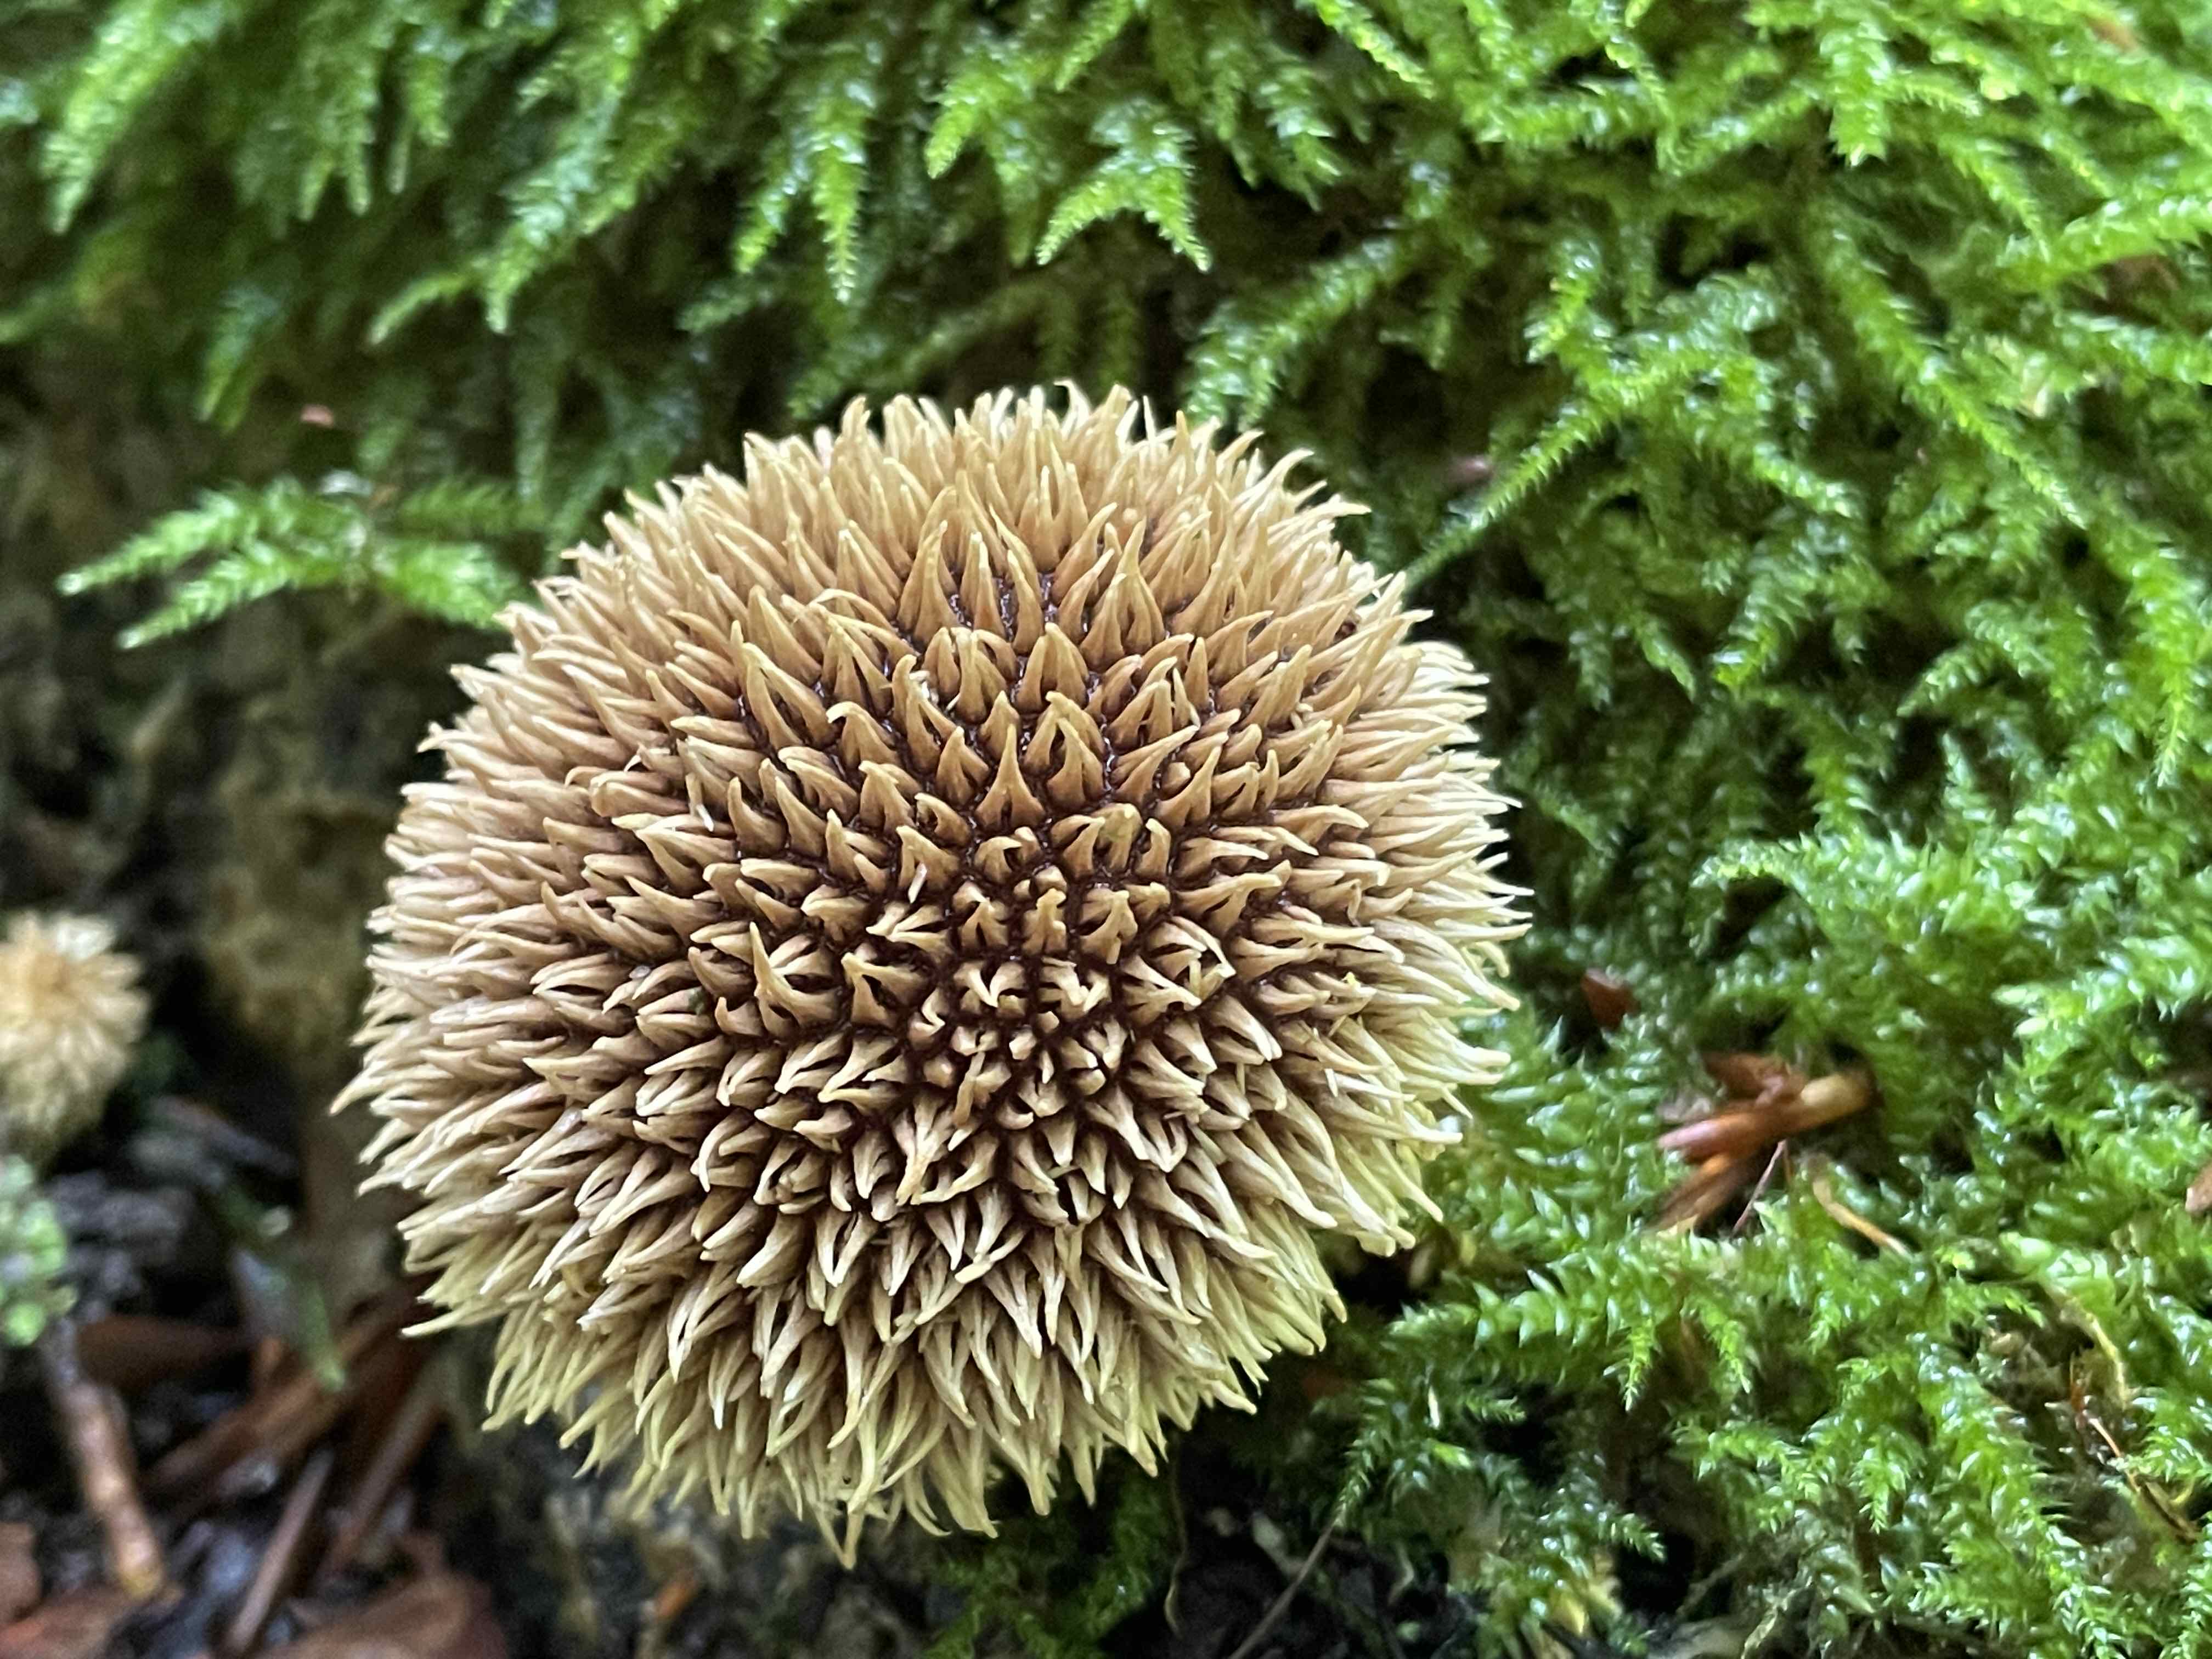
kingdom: Fungi
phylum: Basidiomycota
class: Agaricomycetes
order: Agaricales
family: Lycoperdaceae
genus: Lycoperdon
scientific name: Lycoperdon echinatum
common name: pindsvine-støvbold
